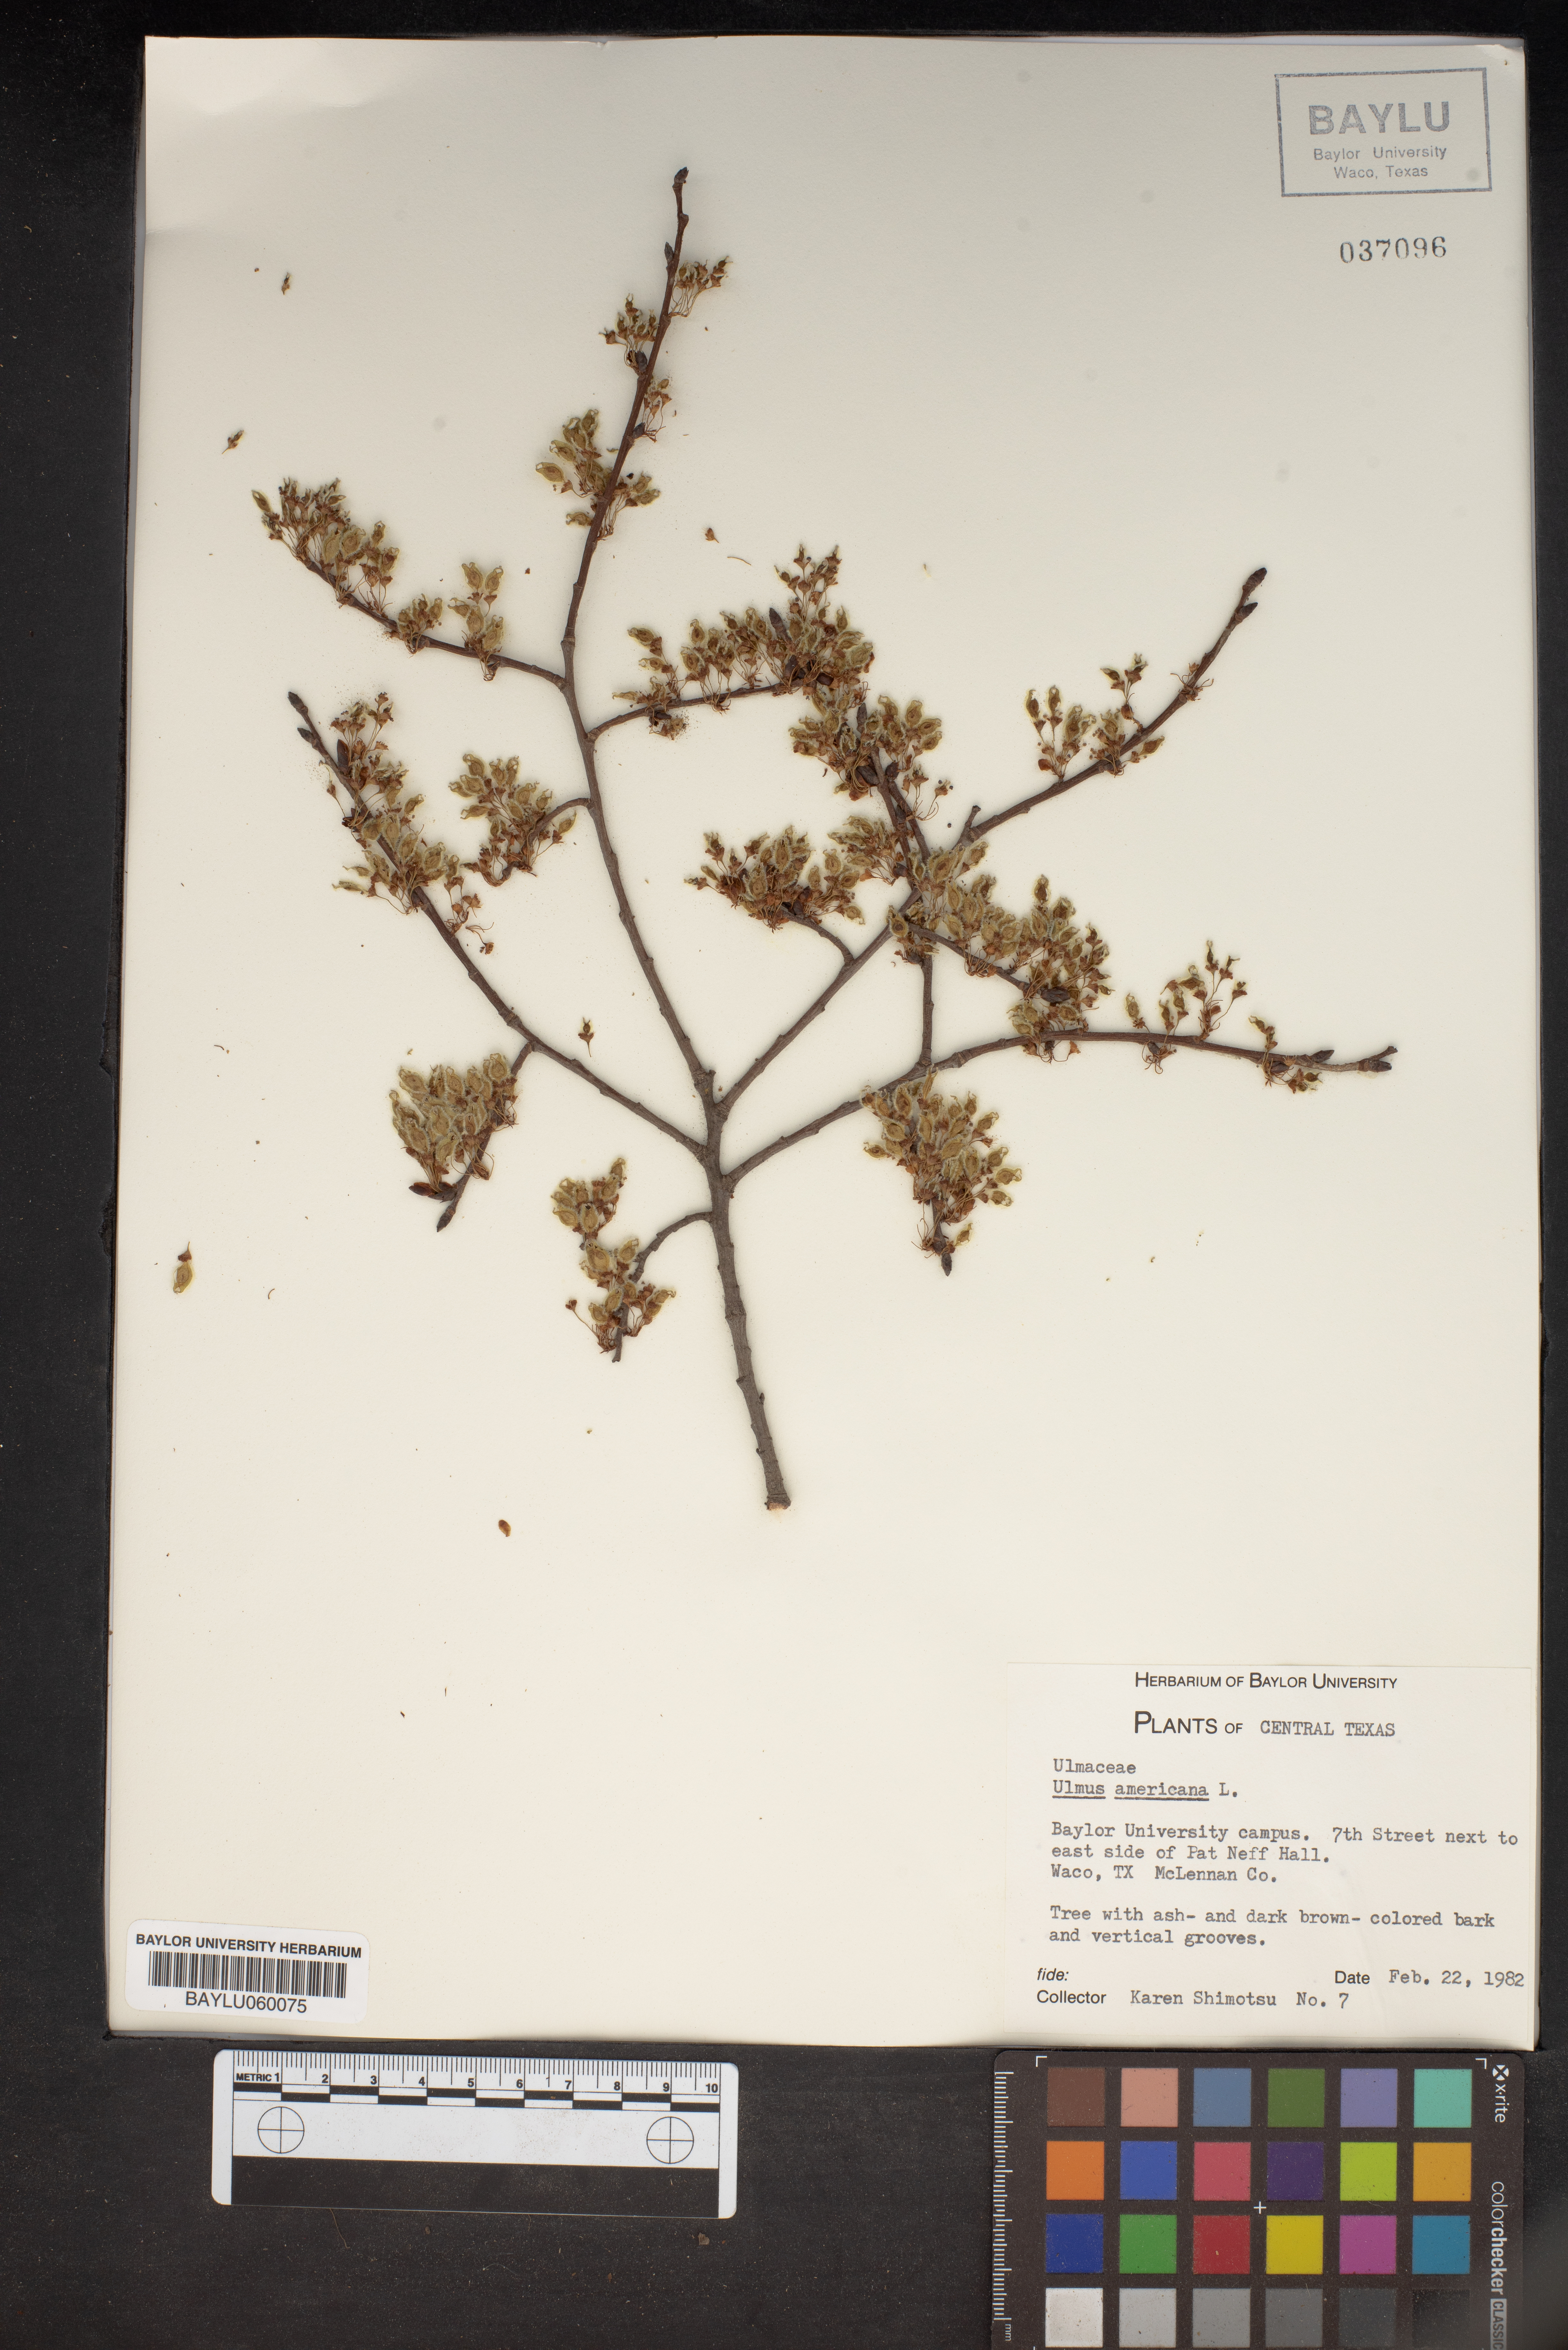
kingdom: Plantae
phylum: Tracheophyta
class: Magnoliopsida
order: Rosales
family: Ulmaceae
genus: Ulmus
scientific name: Ulmus americana
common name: American elm
